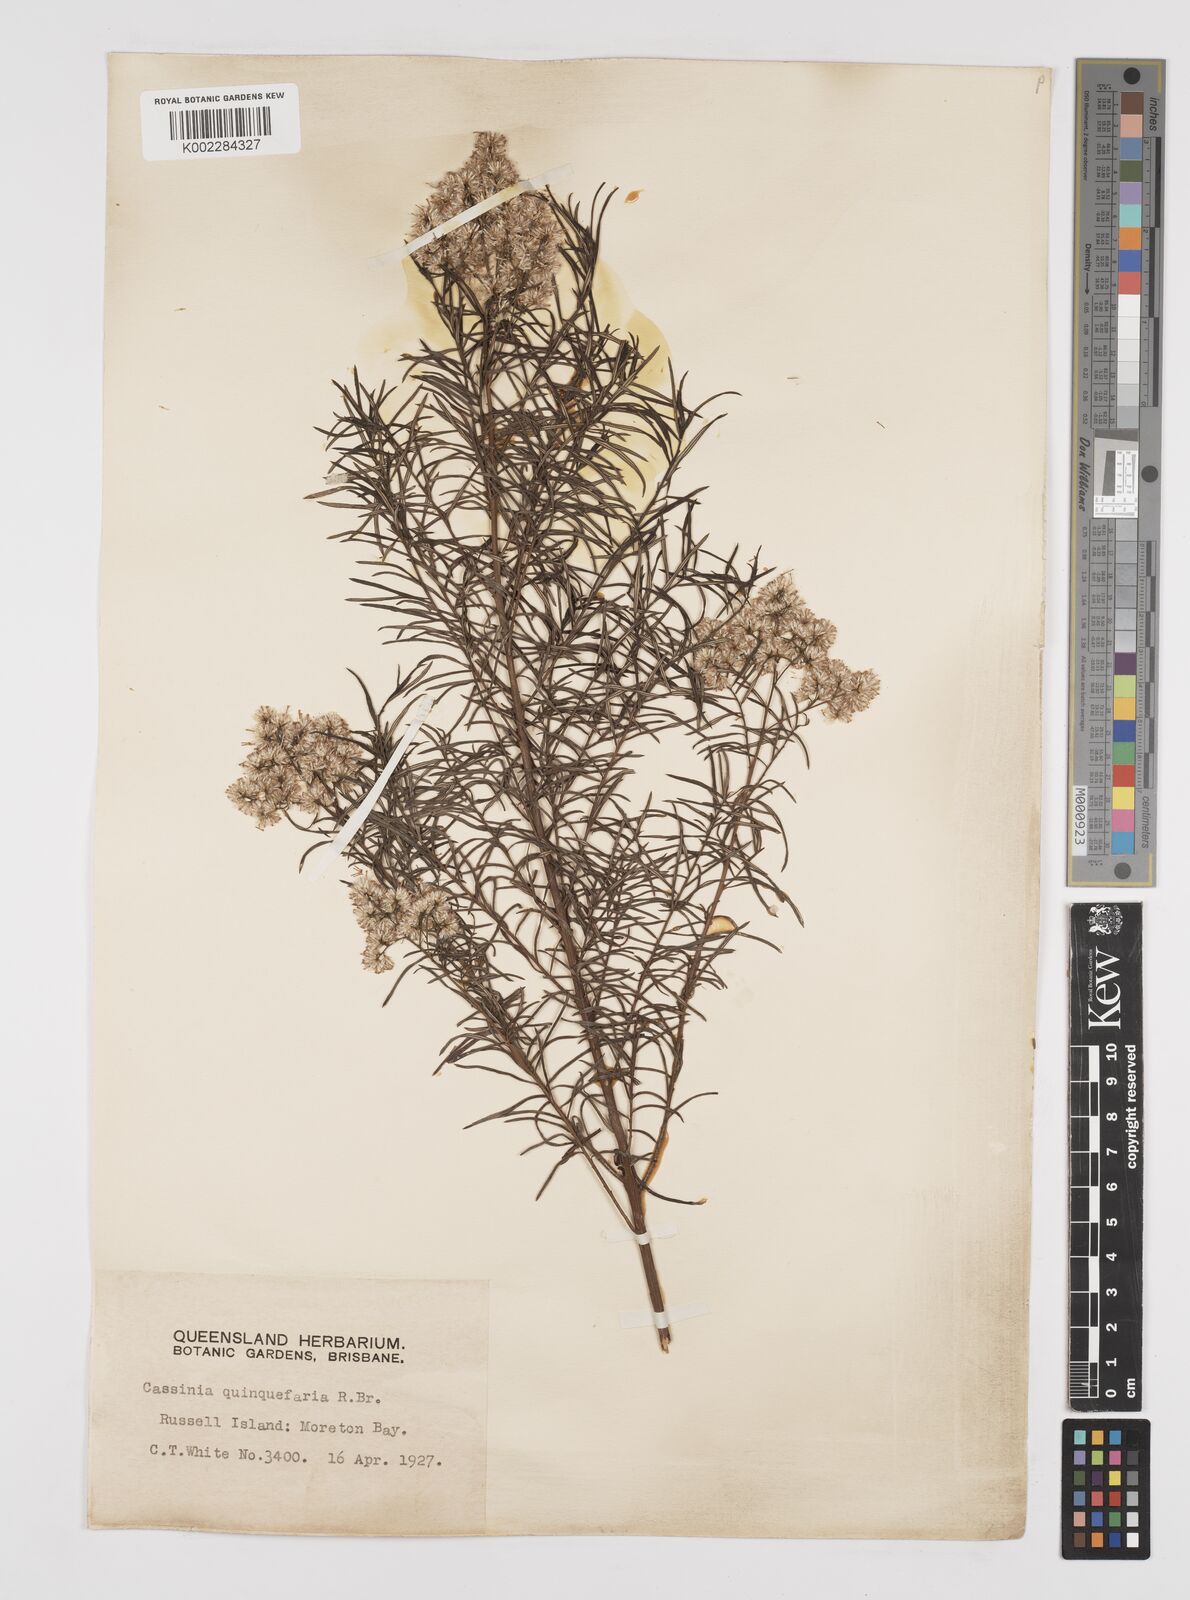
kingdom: Plantae
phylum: Tracheophyta
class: Magnoliopsida
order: Asterales
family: Asteraceae
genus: Cassinia
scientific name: Cassinia quinquefaria
